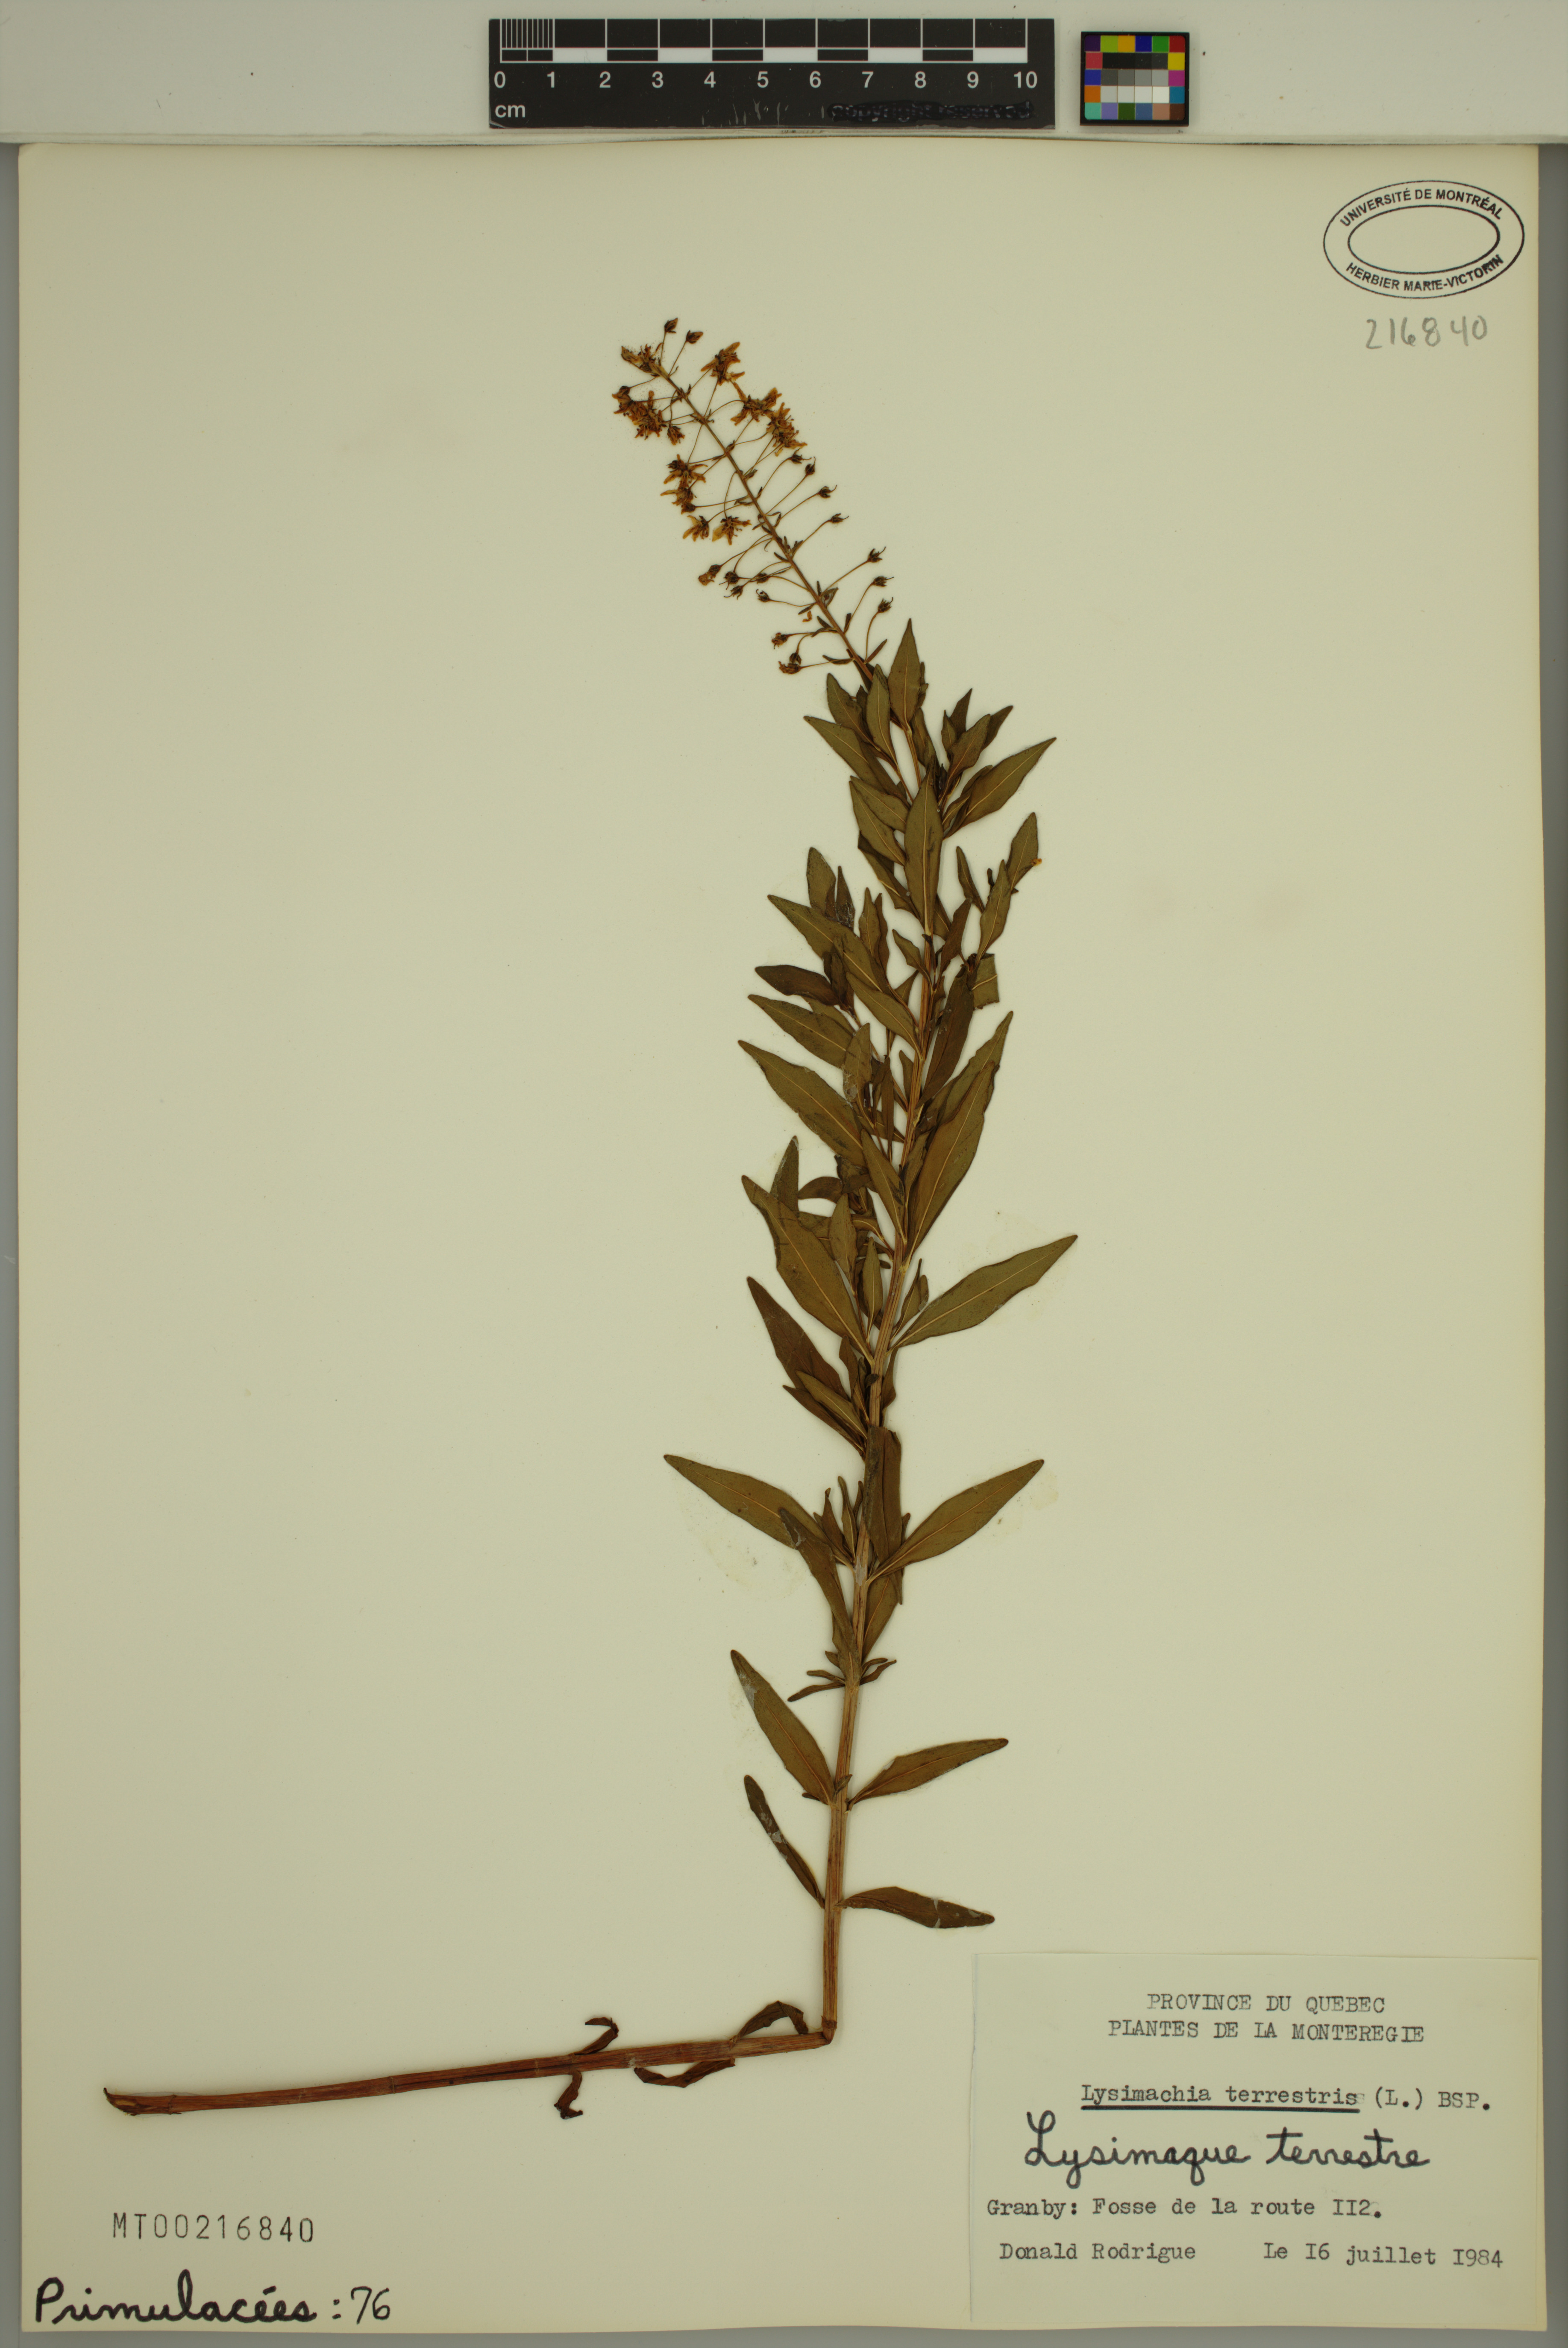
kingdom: Plantae
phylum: Tracheophyta
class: Magnoliopsida
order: Ericales
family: Primulaceae
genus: Lysimachia
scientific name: Lysimachia terrestris
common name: Lake loosestrife
